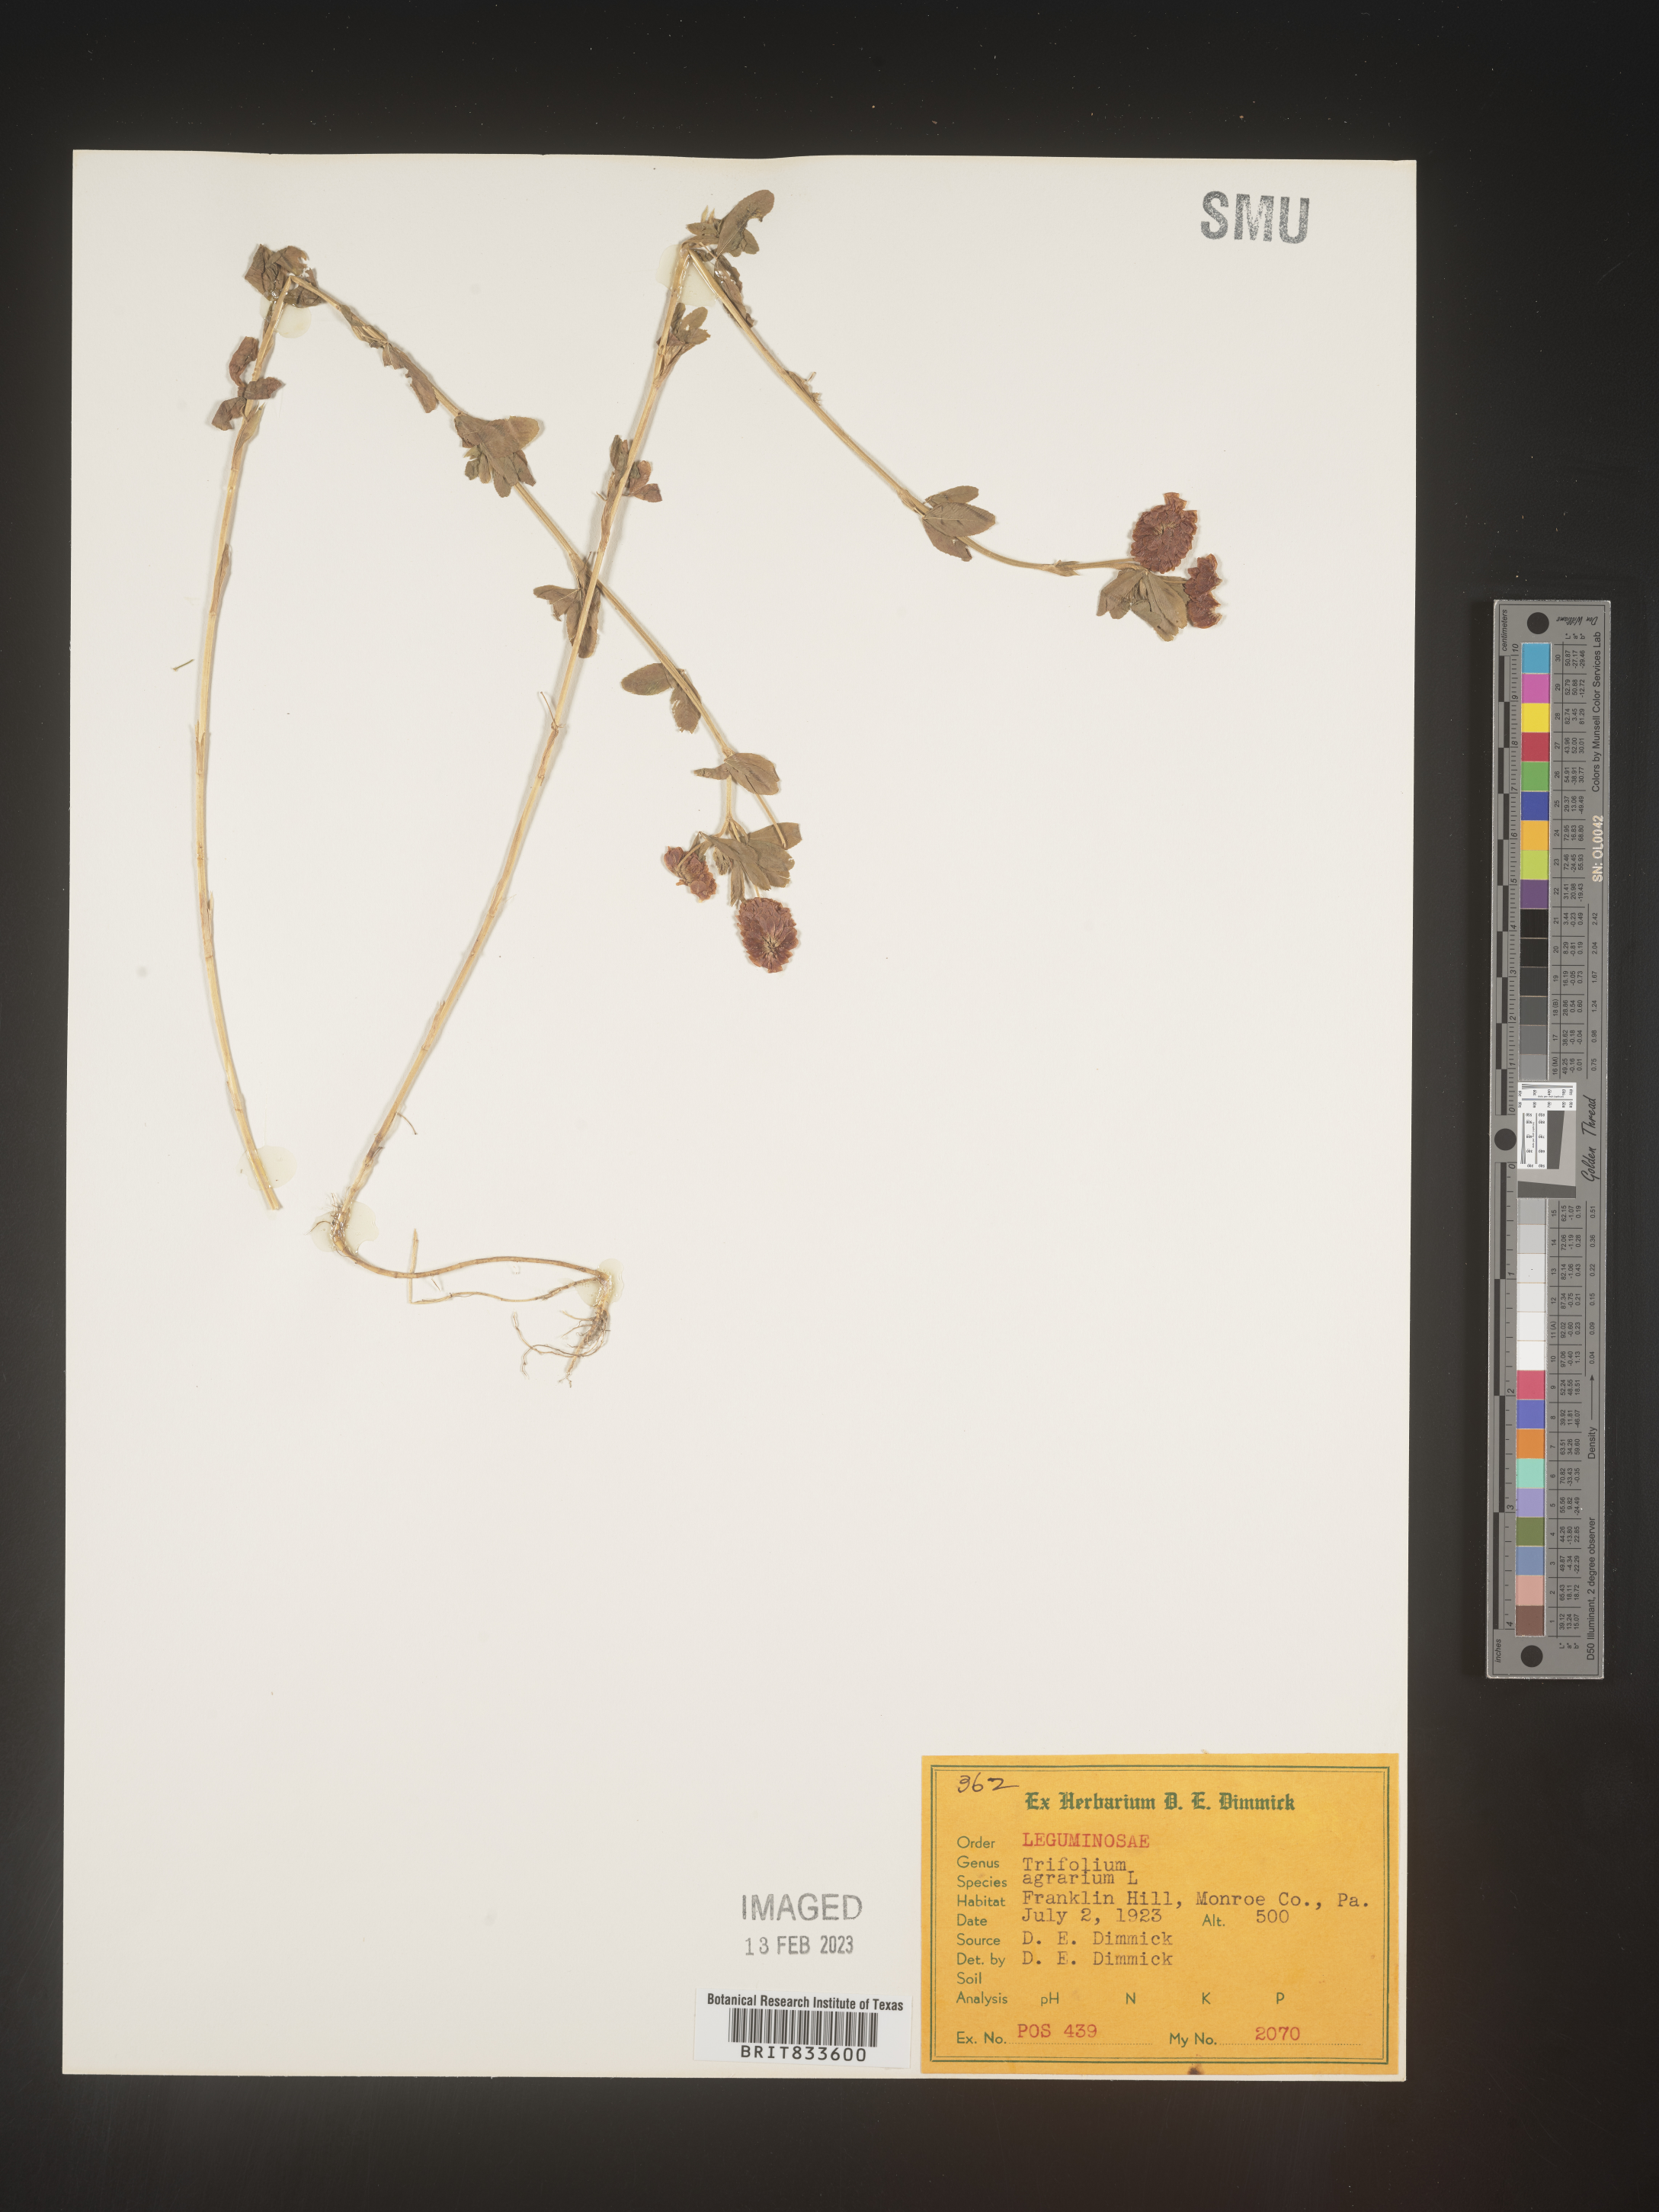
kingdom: Plantae
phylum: Tracheophyta
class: Magnoliopsida
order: Fabales
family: Fabaceae
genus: Trifolium
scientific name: Trifolium agrarium
